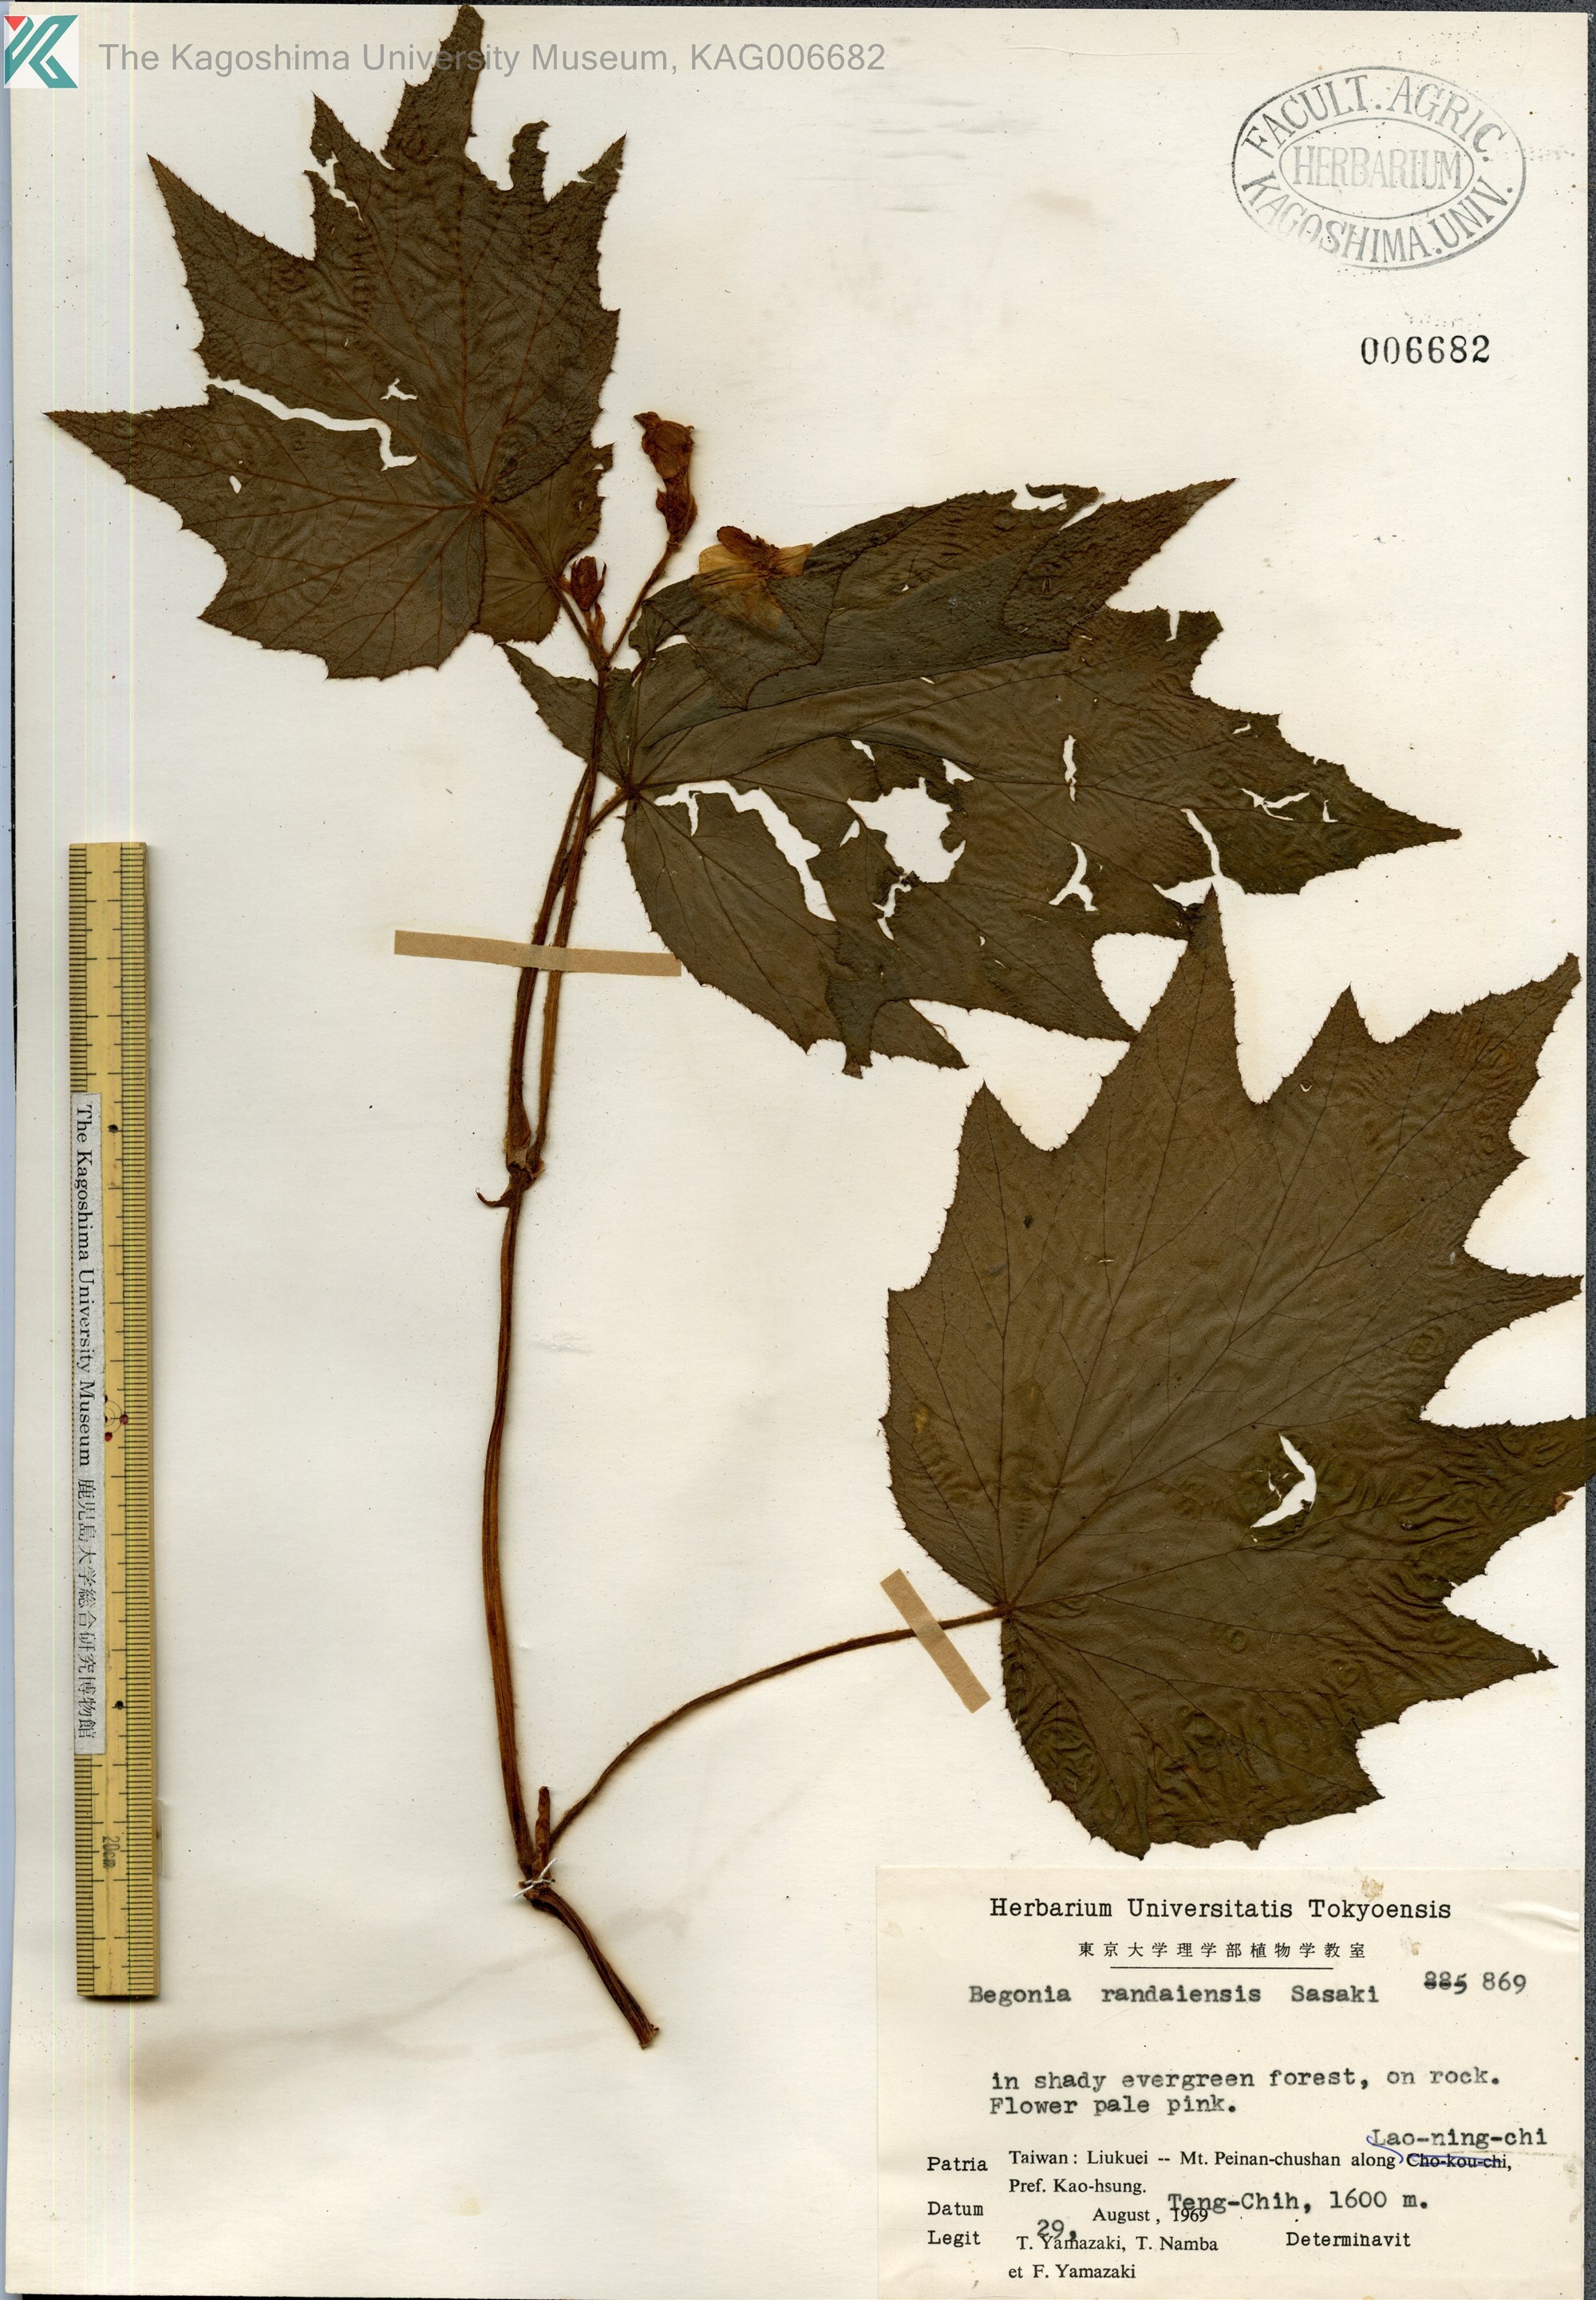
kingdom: Plantae
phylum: Tracheophyta
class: Magnoliopsida
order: Cucurbitales
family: Begoniaceae
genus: Begonia
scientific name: Begonia randaiensis
